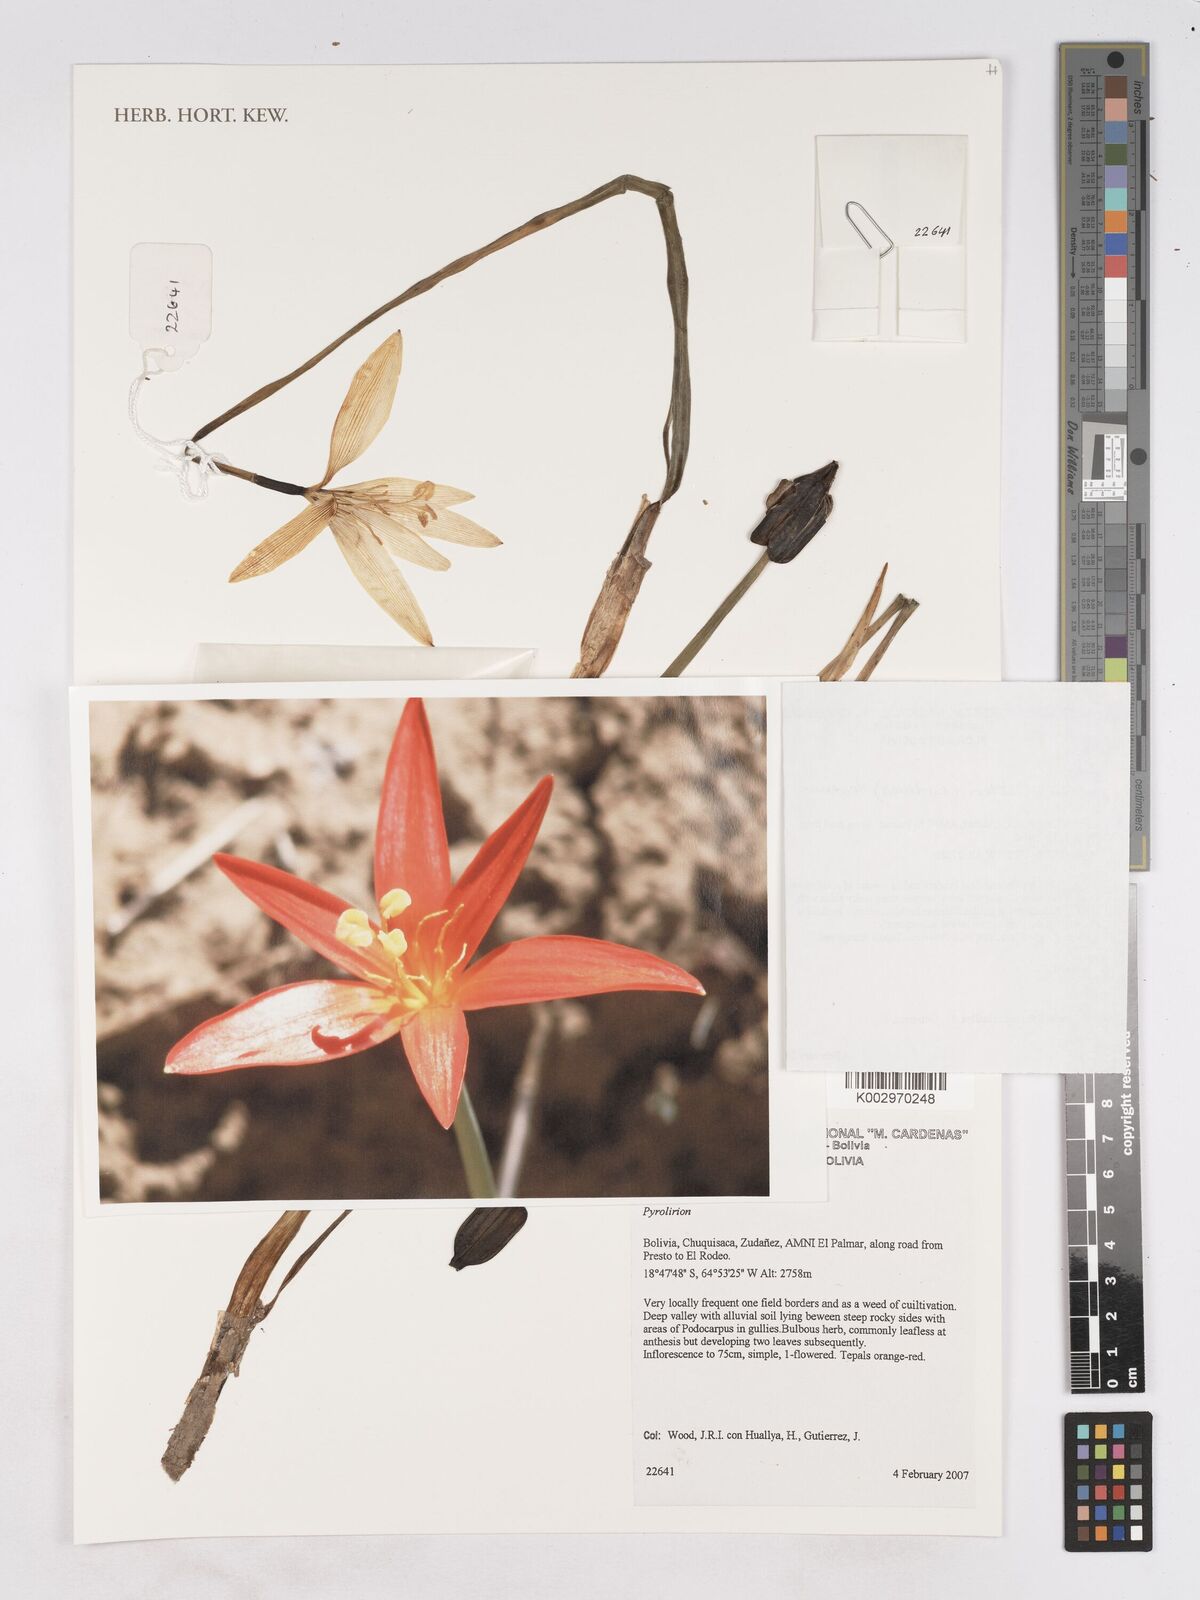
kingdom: Plantae
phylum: Tracheophyta
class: Liliopsida
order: Asparagales
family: Amaryllidaceae
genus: Pyrolirion
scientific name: Pyrolirion cutleri
